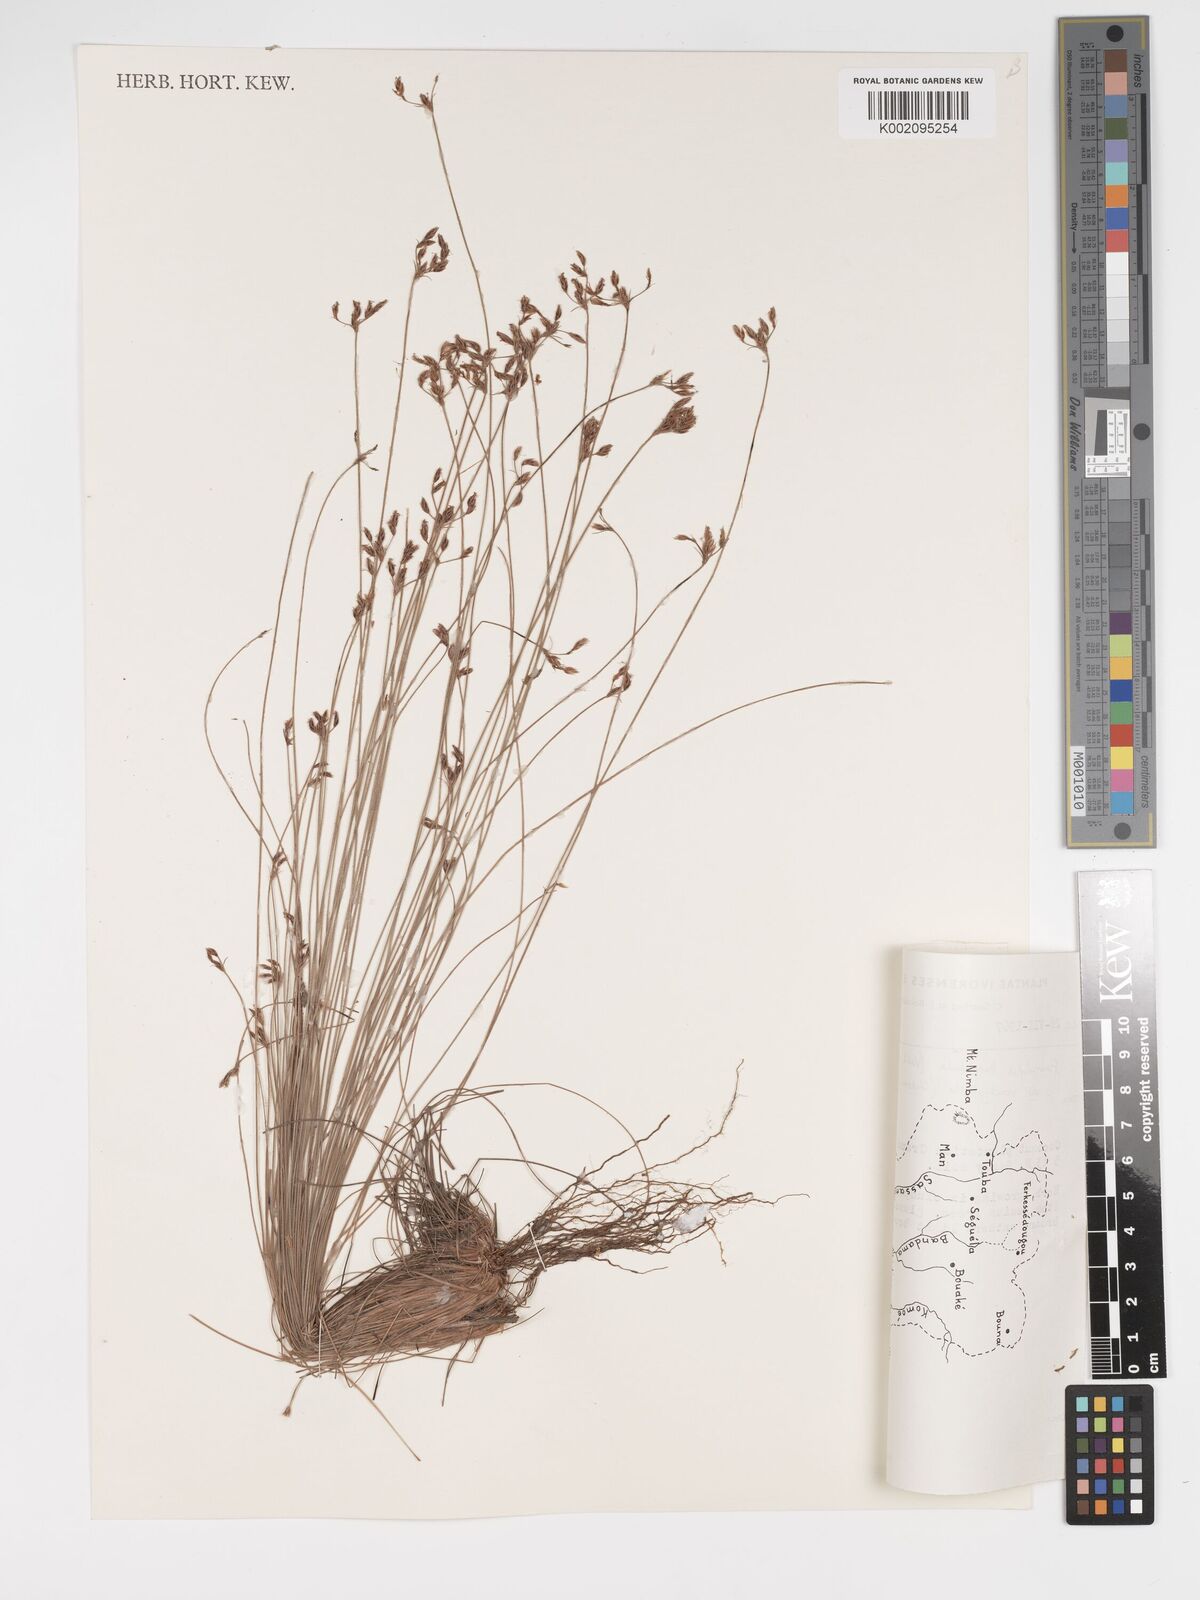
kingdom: Plantae
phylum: Tracheophyta
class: Liliopsida
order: Poales
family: Cyperaceae
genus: Bulbostylis
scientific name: Bulbostylis hispidula
